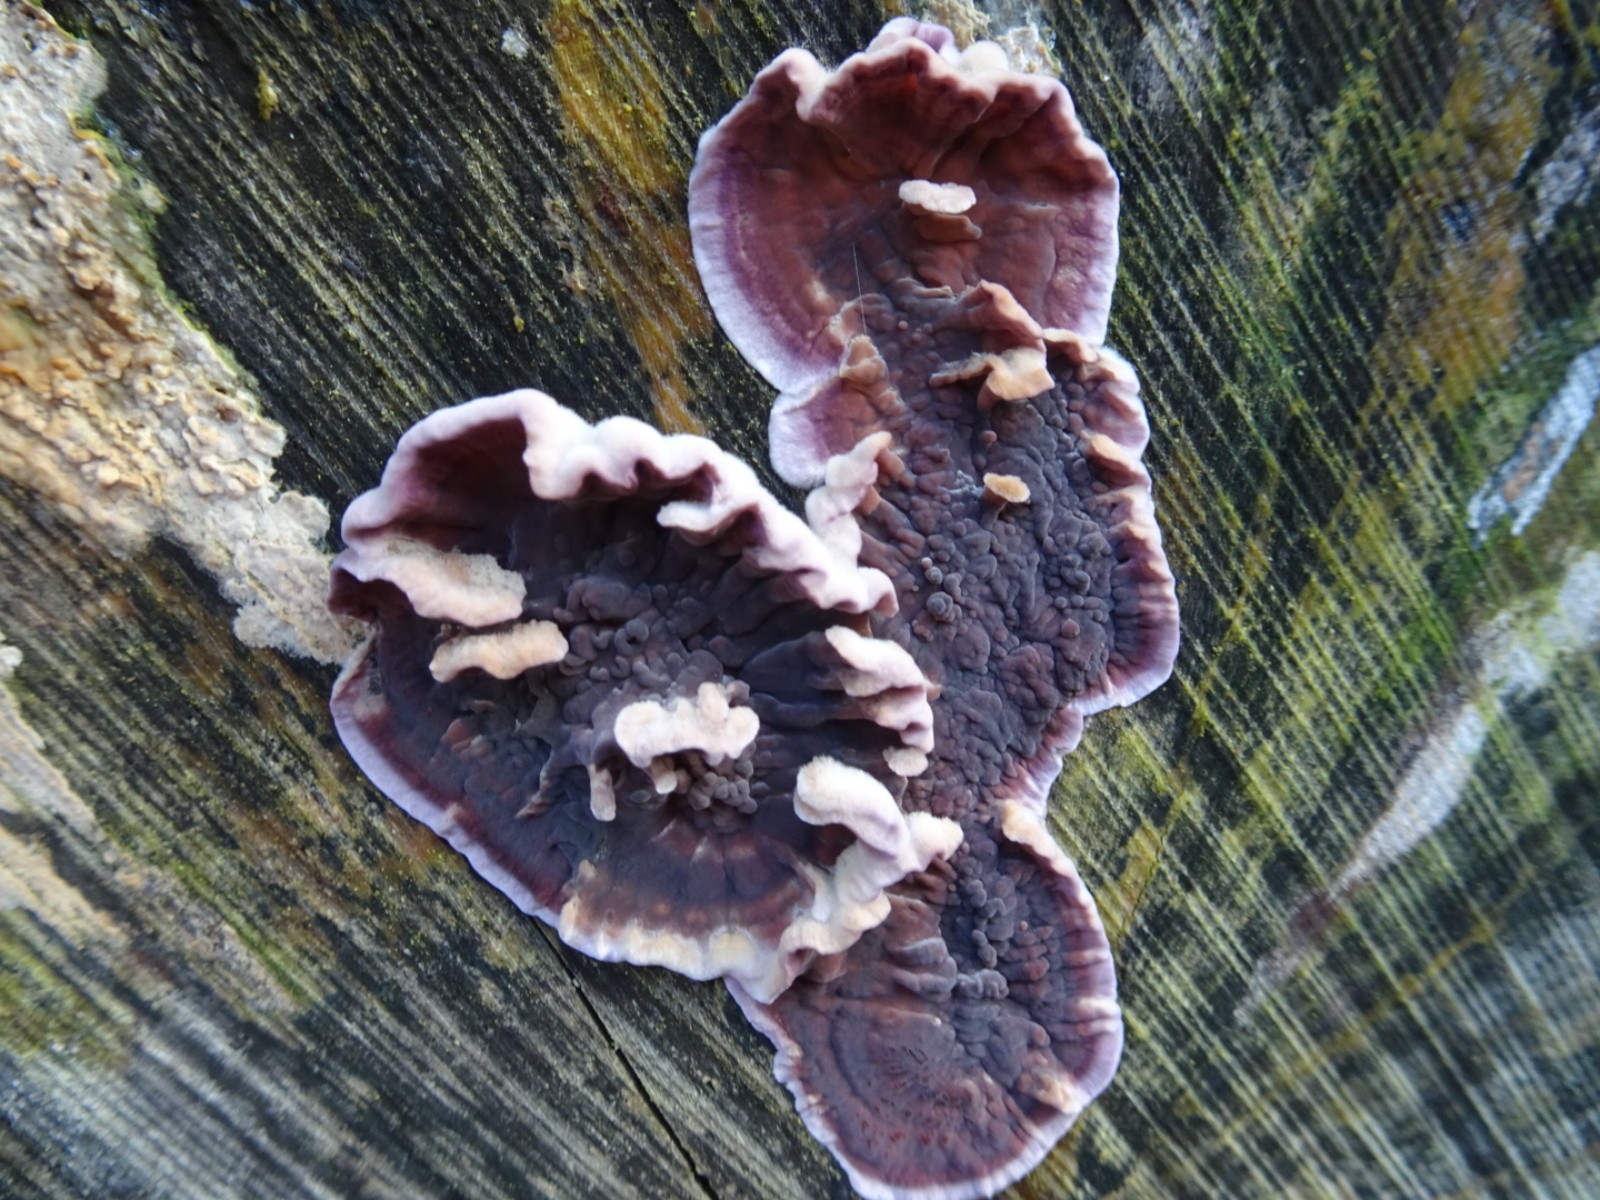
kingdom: Fungi
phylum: Basidiomycota
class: Agaricomycetes
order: Agaricales
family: Cyphellaceae
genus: Chondrostereum
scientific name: Chondrostereum purpureum
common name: purpurlædersvamp
